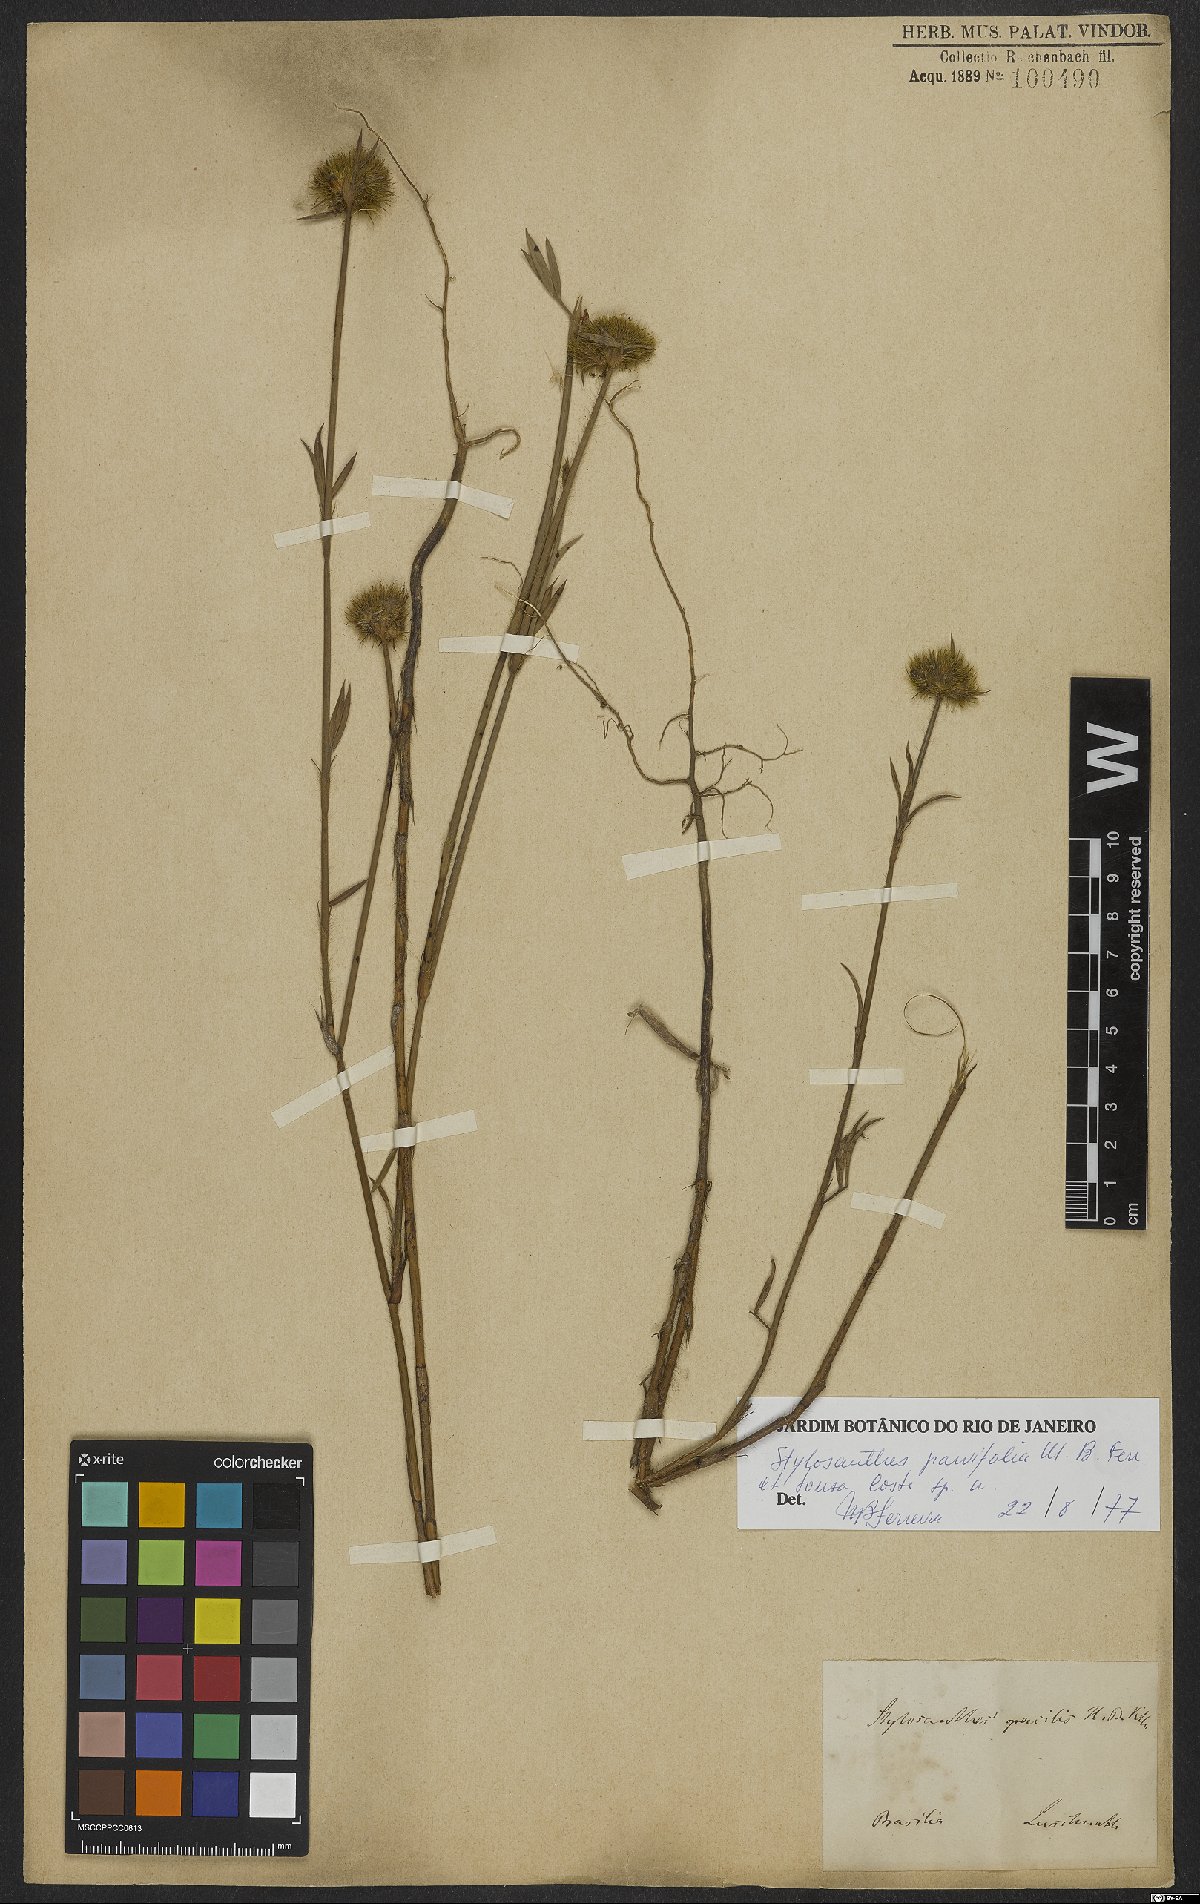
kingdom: Plantae
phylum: Tracheophyta
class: Magnoliopsida
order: Fabales
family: Fabaceae
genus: Stylosanthes
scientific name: Stylosanthes
